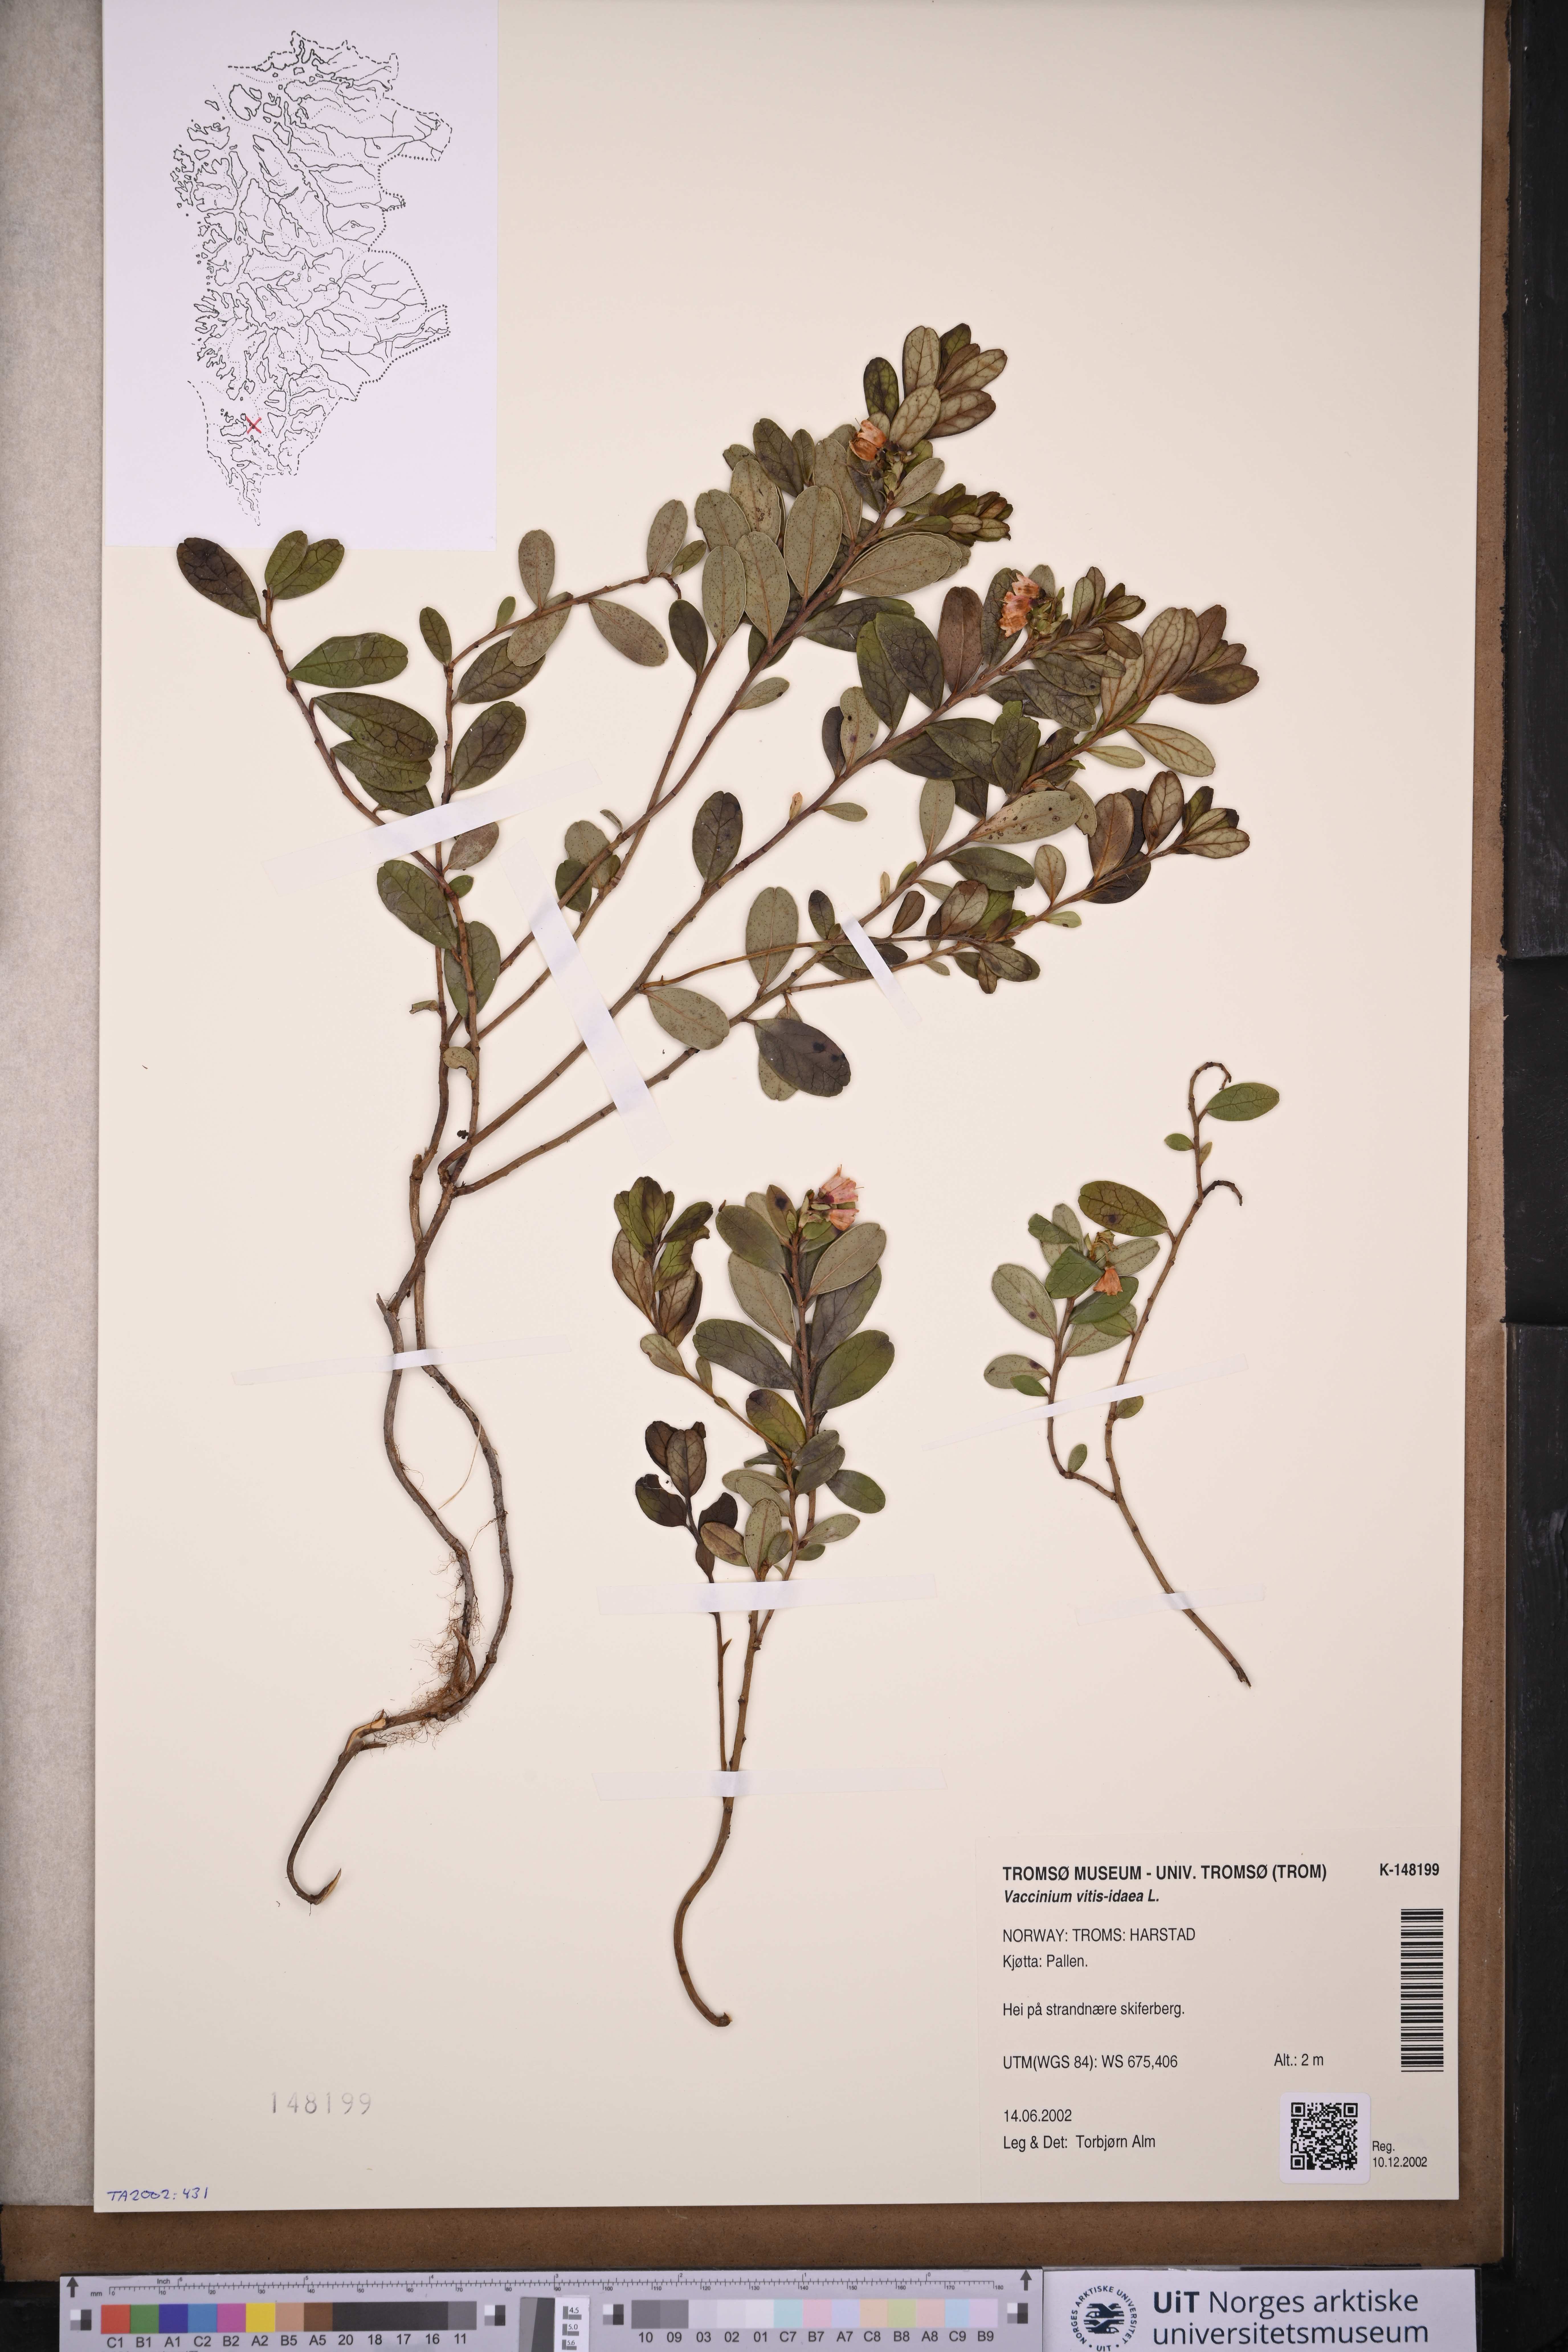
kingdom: Plantae
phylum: Tracheophyta
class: Magnoliopsida
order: Ericales
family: Ericaceae
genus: Vaccinium
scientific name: Vaccinium vitis-idaea
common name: Cowberry
